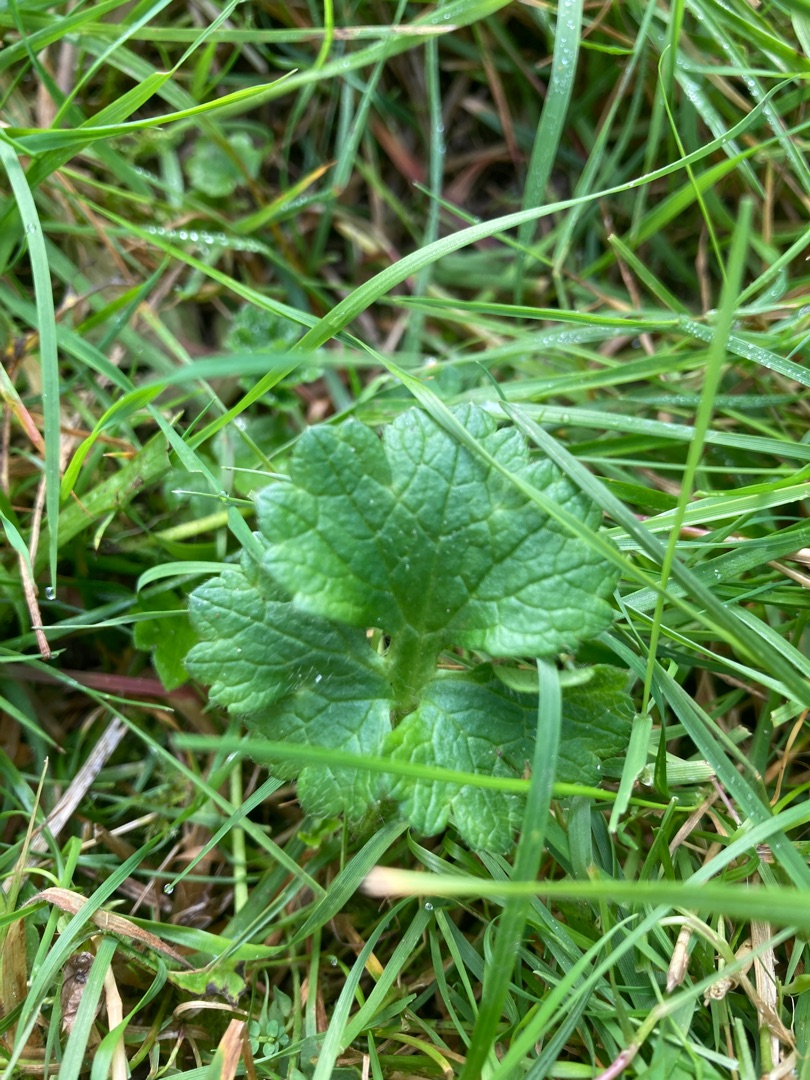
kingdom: Plantae
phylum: Tracheophyta
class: Magnoliopsida
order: Ranunculales
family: Ranunculaceae
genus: Ranunculus
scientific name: Ranunculus bulbosus
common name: Knold-ranunkel
